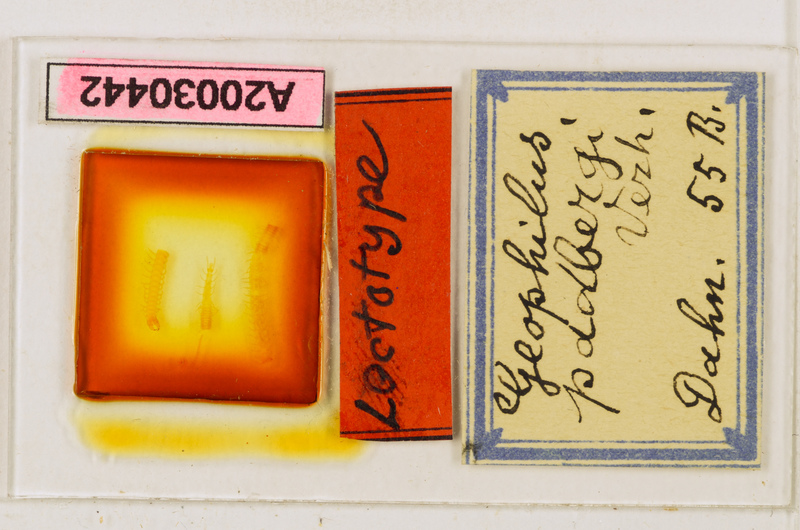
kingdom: Animalia
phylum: Arthropoda
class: Chilopoda
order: Geophilomorpha
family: Geophilidae
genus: Geophilus
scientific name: Geophilus studeri
